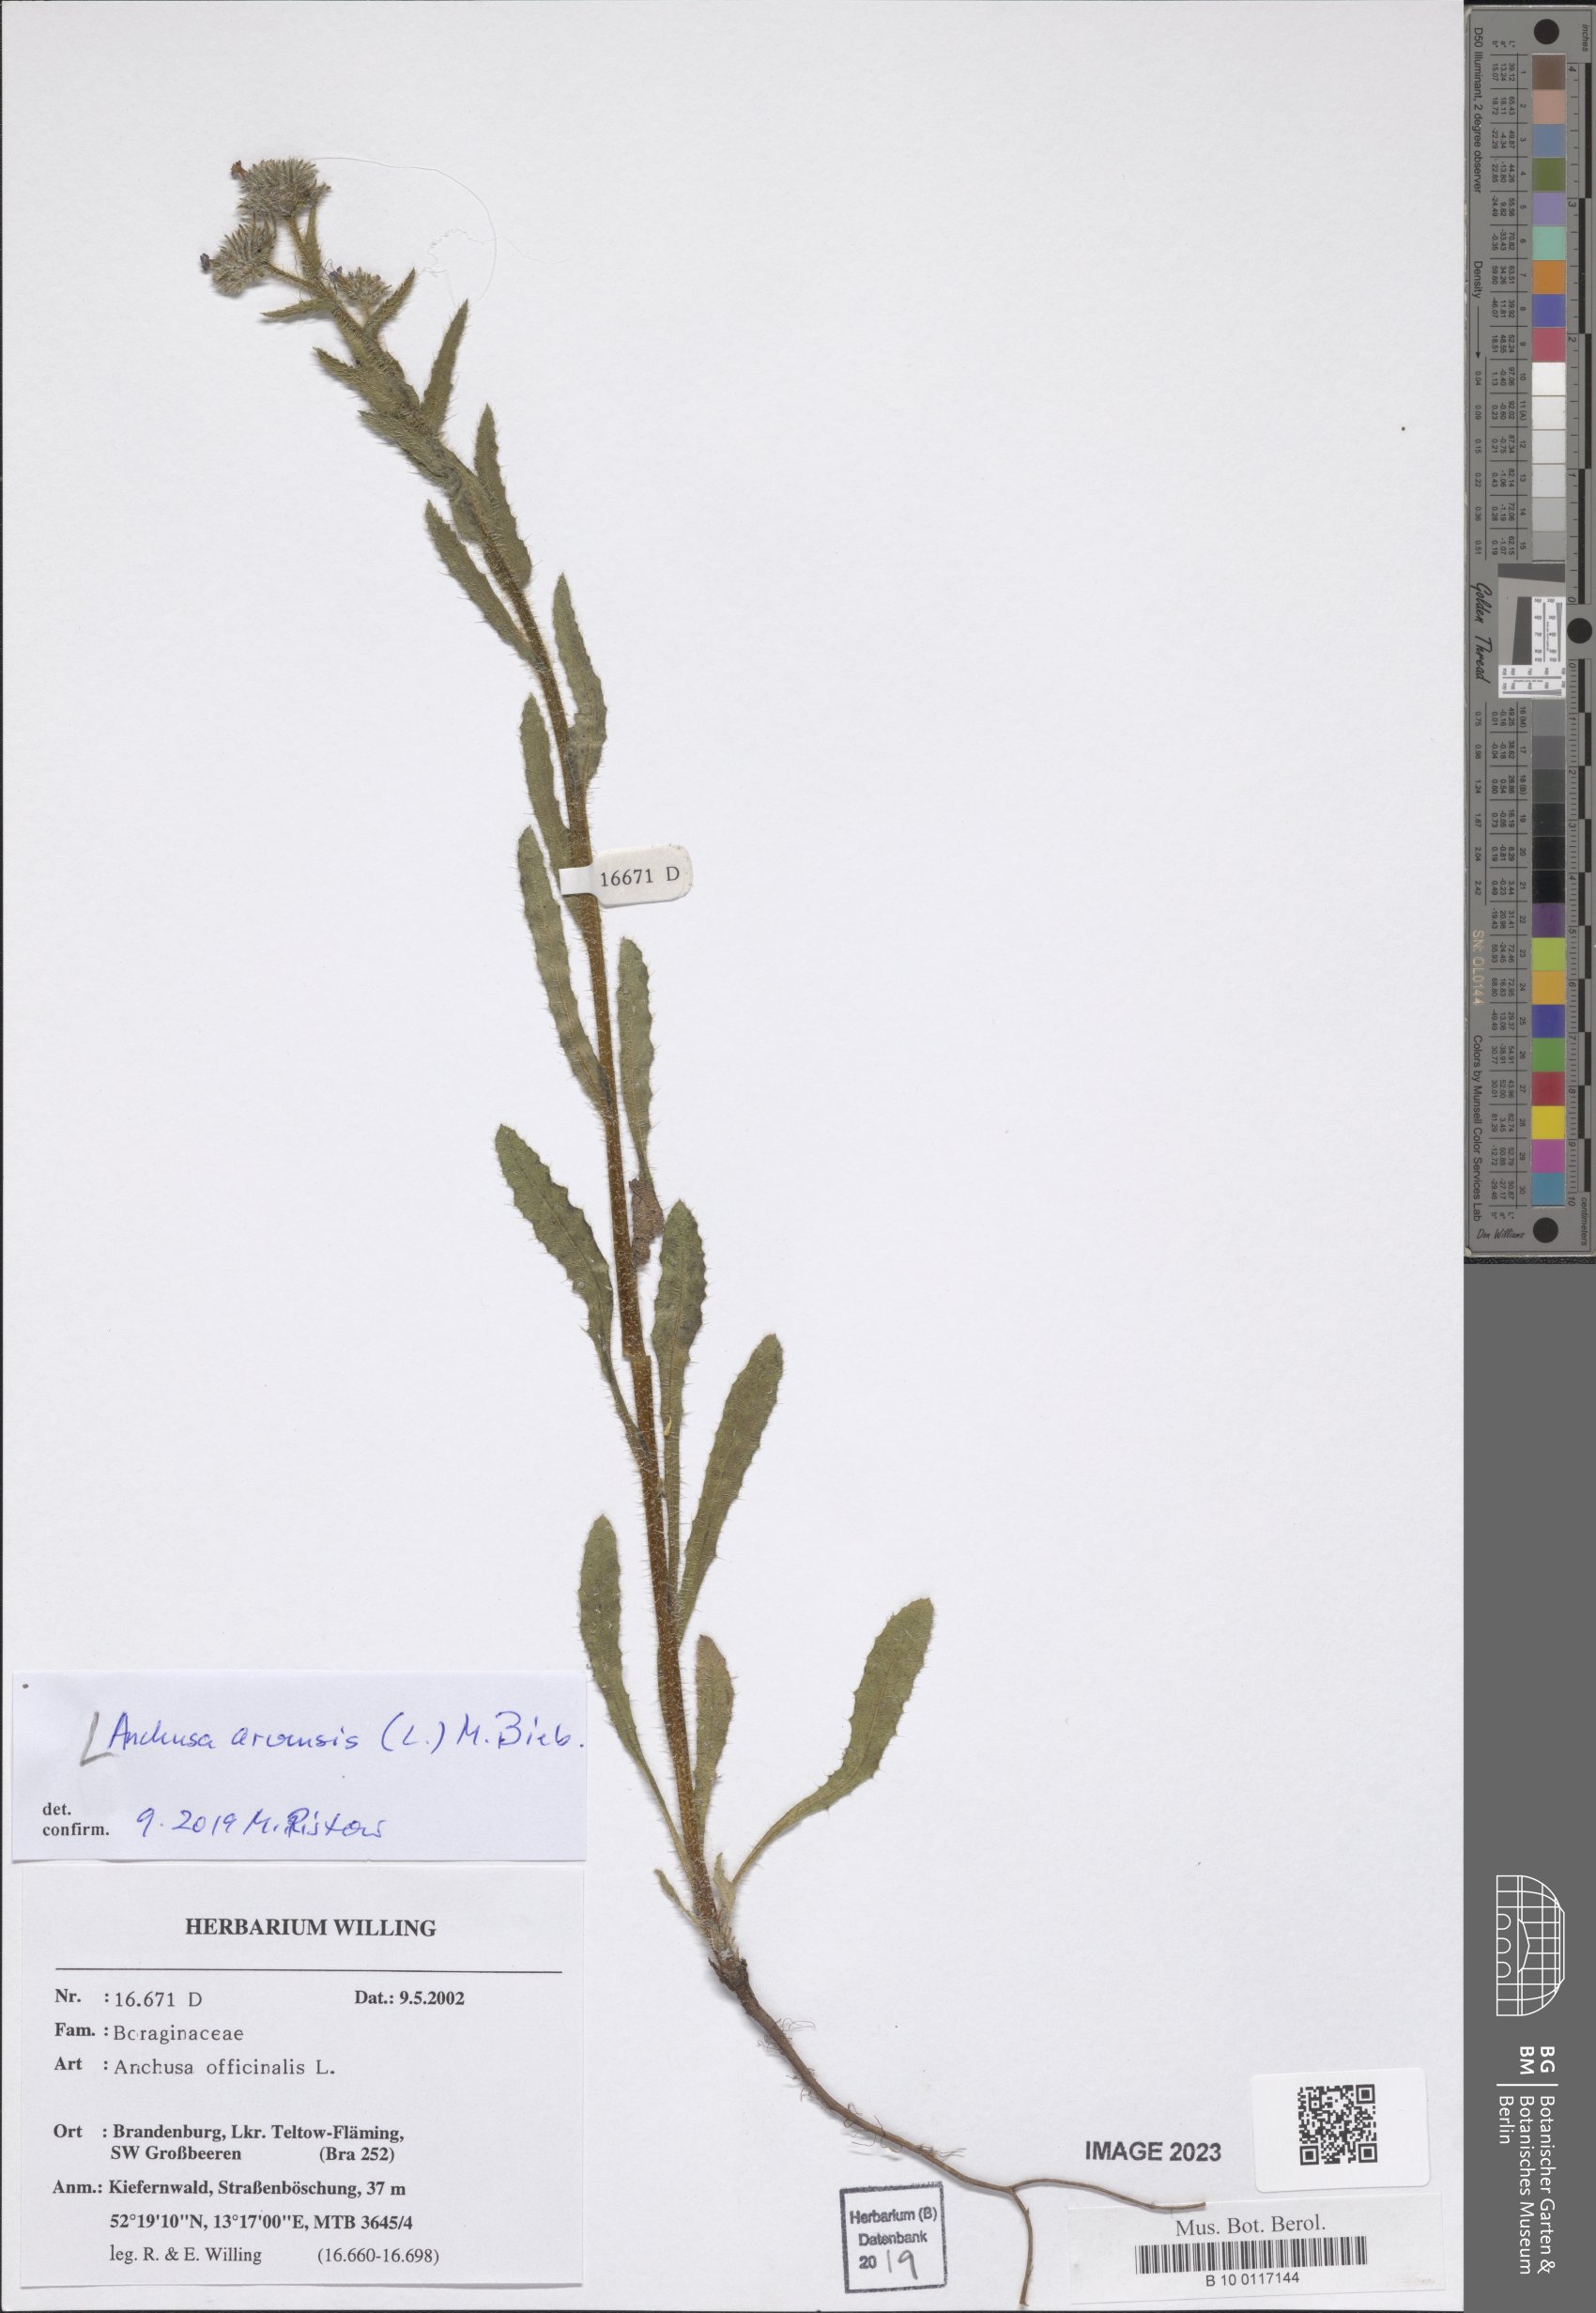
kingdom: Plantae
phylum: Tracheophyta
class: Magnoliopsida
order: Boraginales
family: Boraginaceae
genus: Lycopsis
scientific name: Lycopsis arvensis
